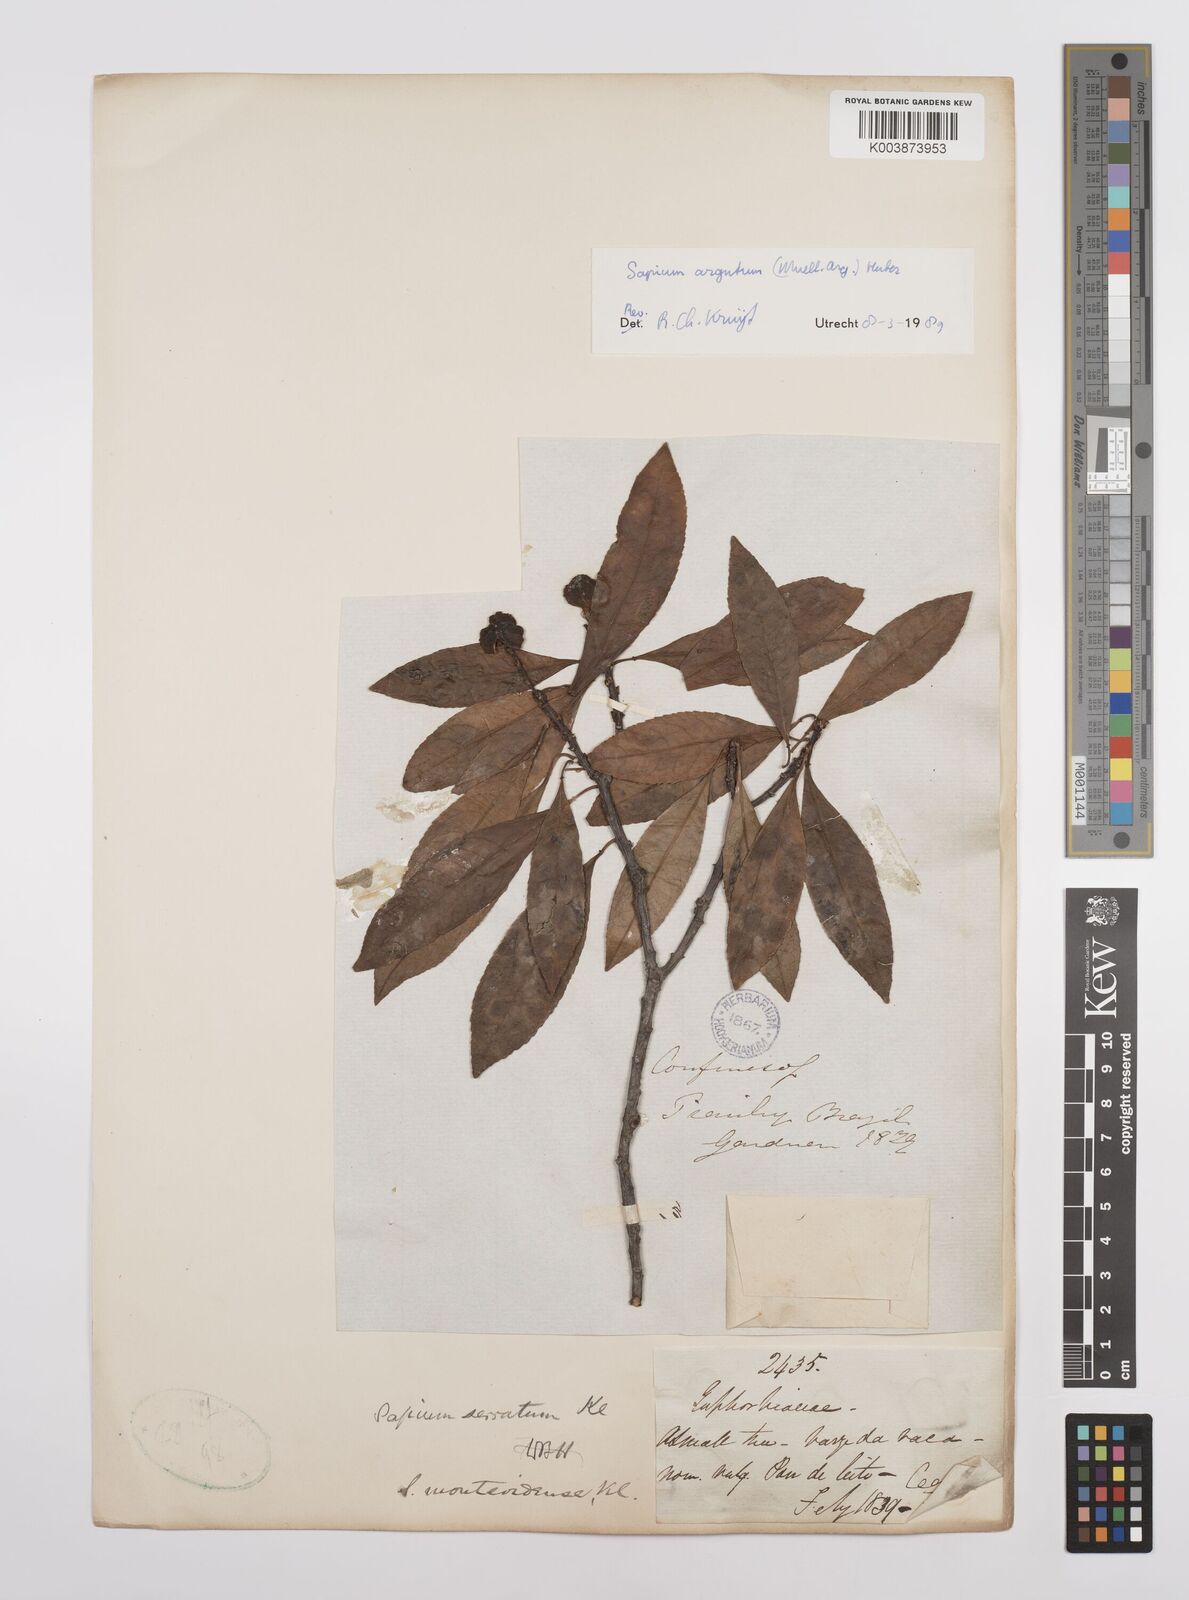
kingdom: Plantae
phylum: Tracheophyta
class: Magnoliopsida
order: Malpighiales
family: Euphorbiaceae
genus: Sapium
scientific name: Sapium glandulosum
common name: Milktree
